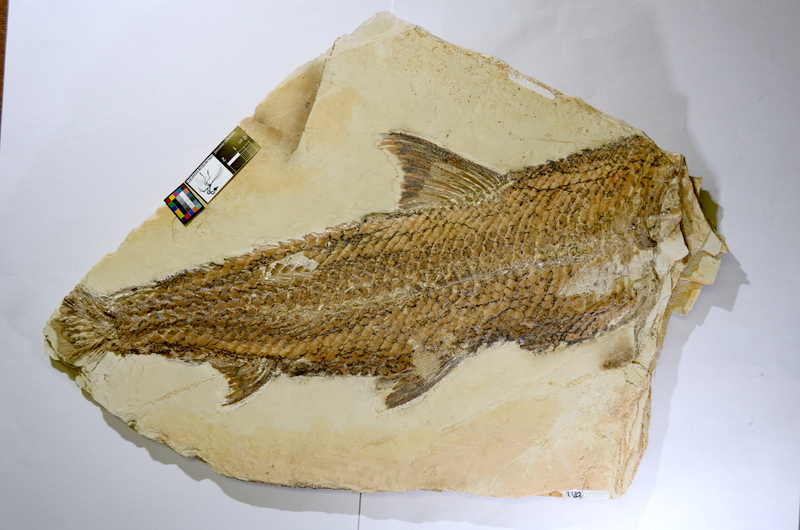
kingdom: Animalia
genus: Halecomorphi
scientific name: Halecomorphi
